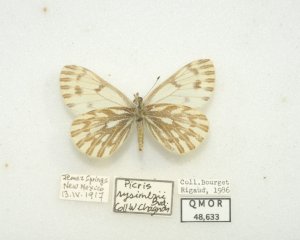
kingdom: Animalia
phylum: Arthropoda
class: Insecta
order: Lepidoptera
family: Pieridae
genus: Pontia
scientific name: Pontia sisymbrii
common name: Spring White
